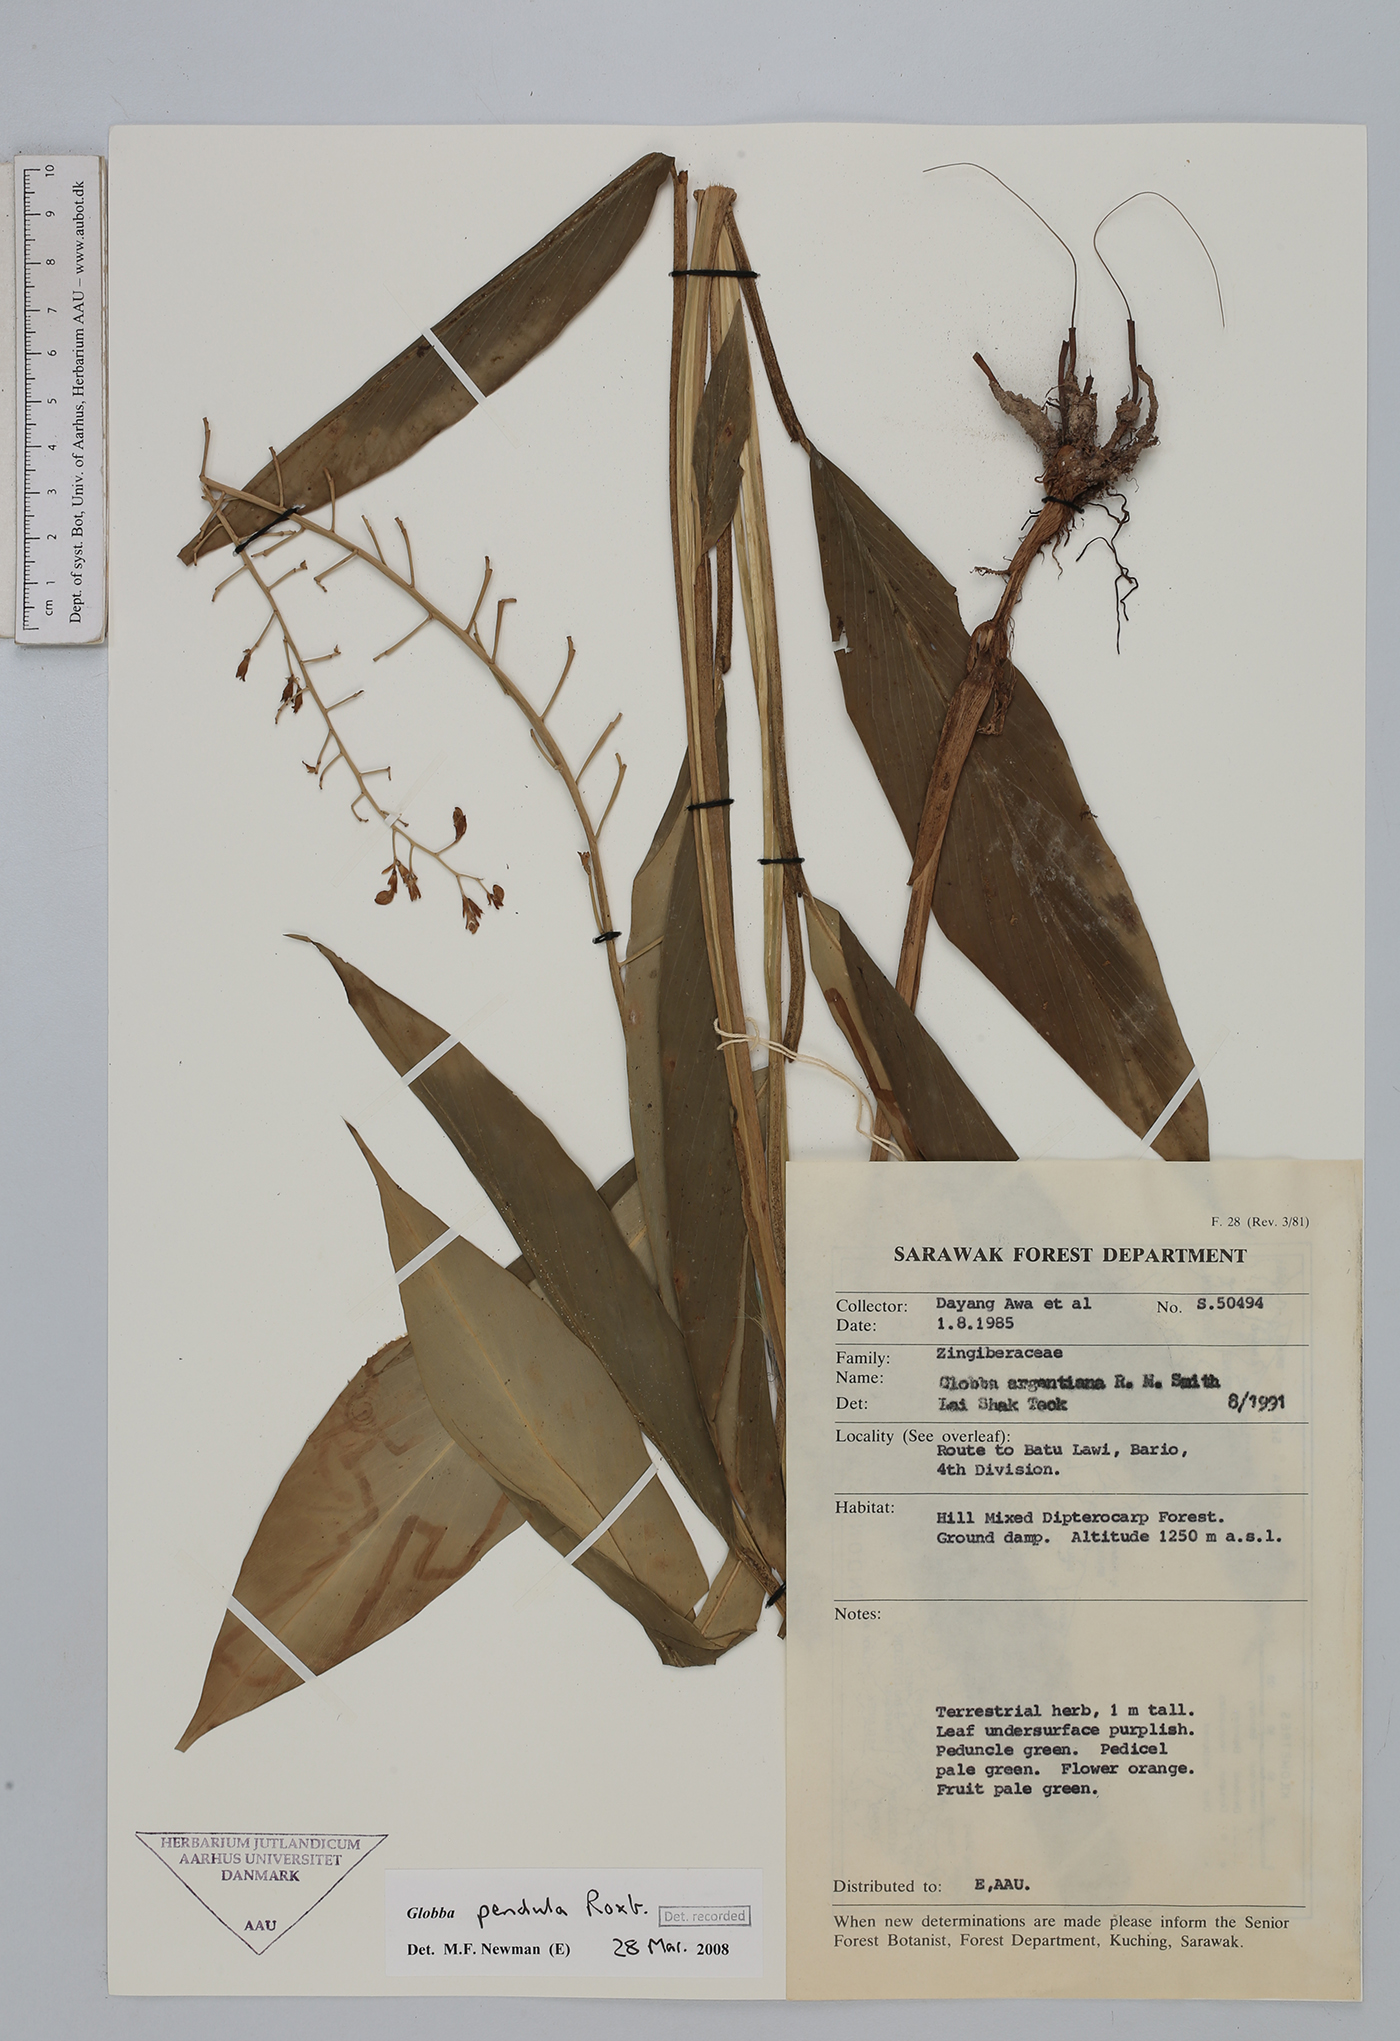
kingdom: Plantae
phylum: Tracheophyta
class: Liliopsida
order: Zingiberales
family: Zingiberaceae
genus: Globba
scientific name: Globba pendula
